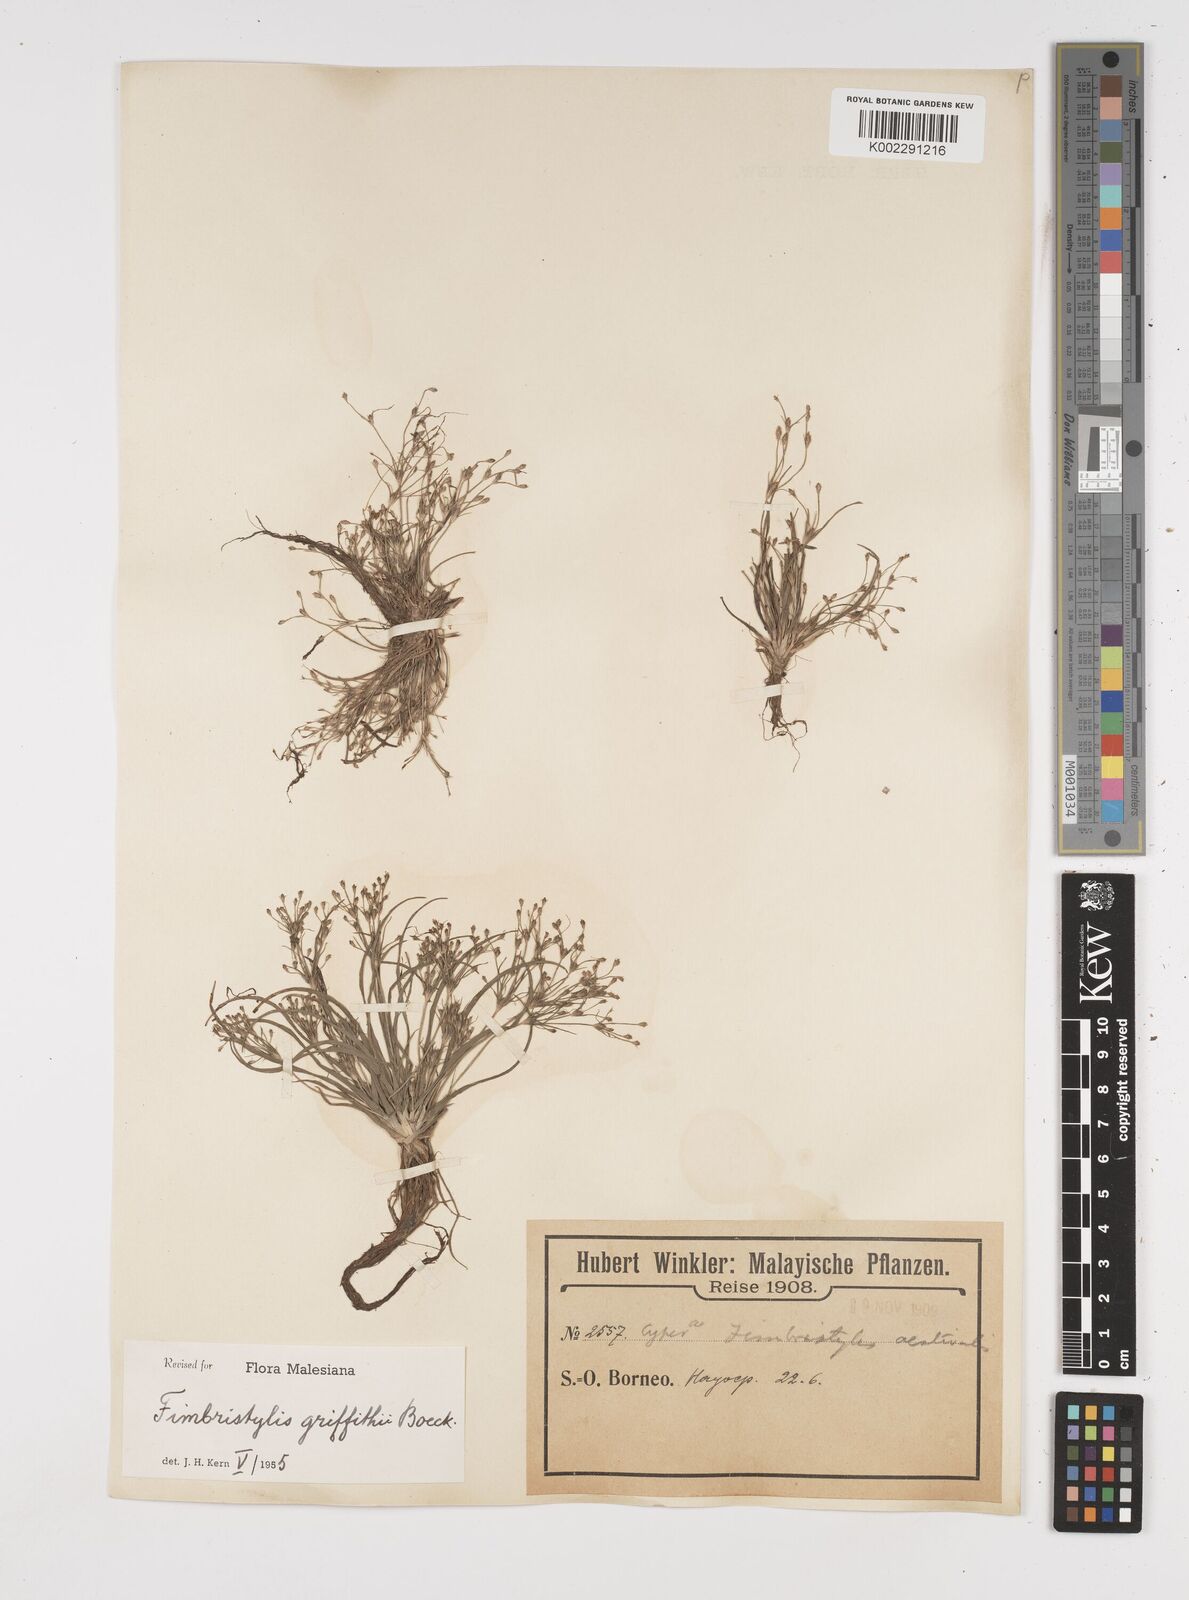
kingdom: Plantae
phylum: Tracheophyta
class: Liliopsida
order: Poales
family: Cyperaceae
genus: Fimbristylis
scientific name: Fimbristylis griffithii
